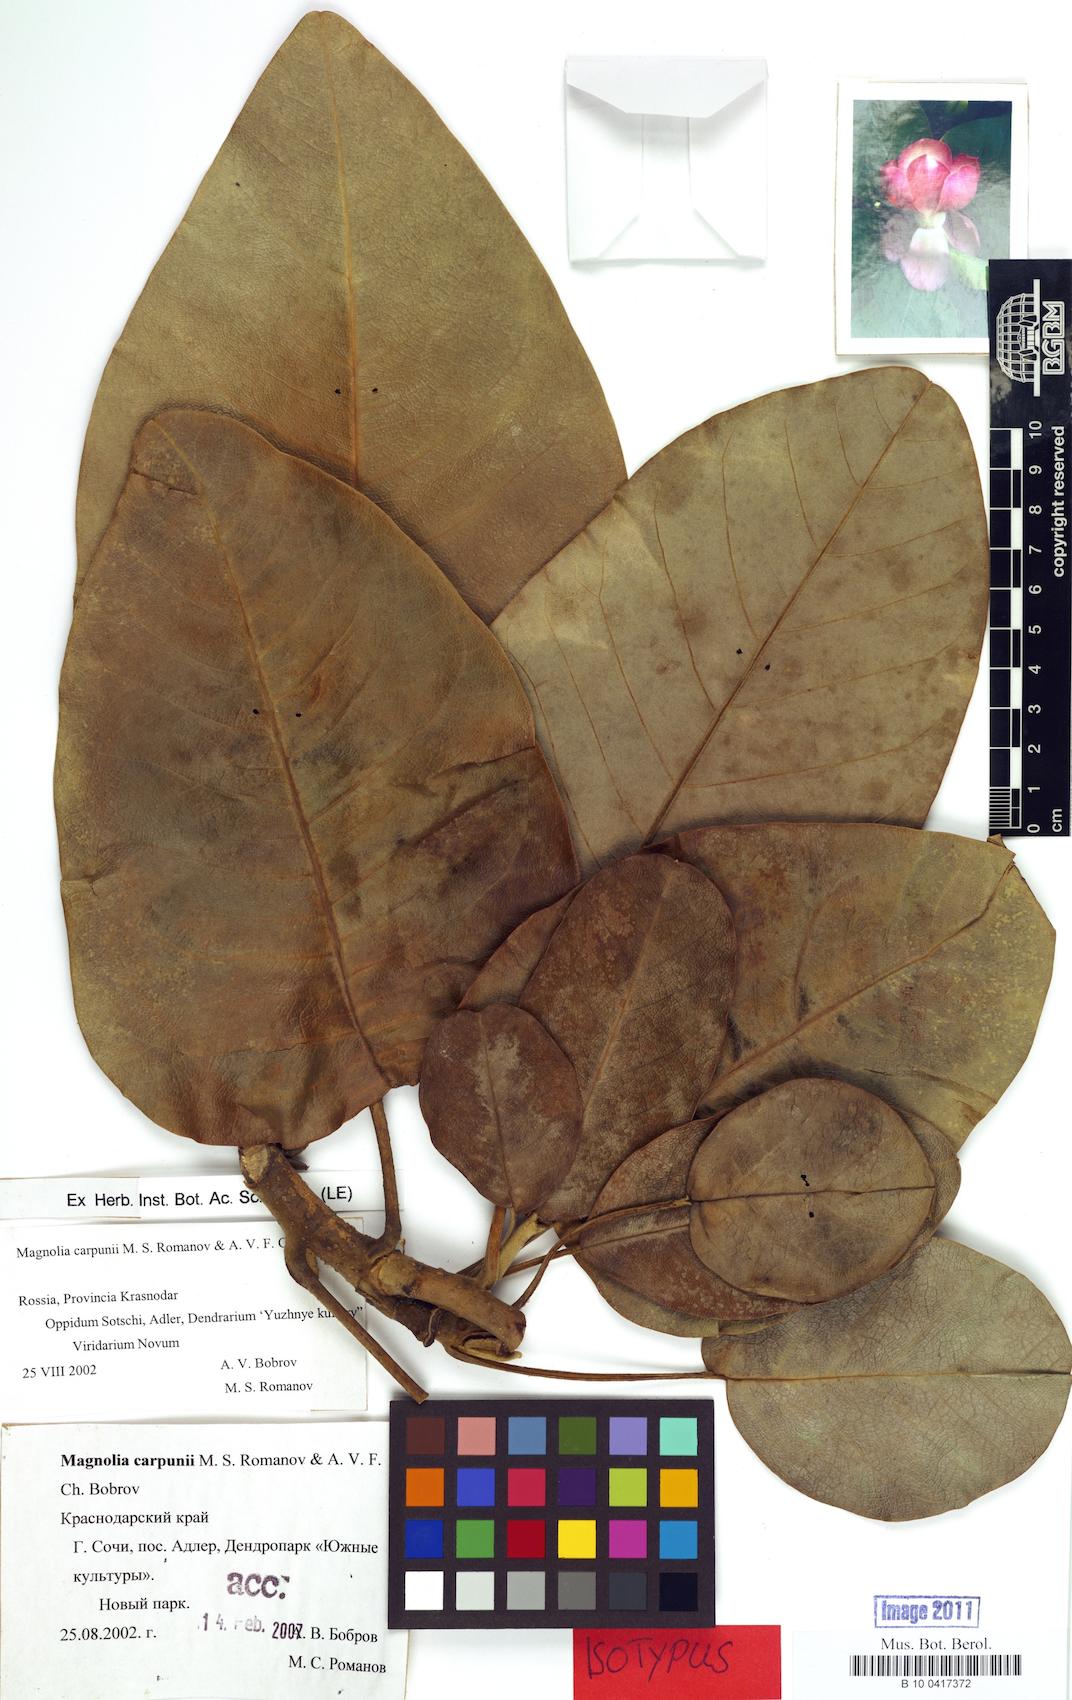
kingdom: Plantae
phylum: Tracheophyta
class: Magnoliopsida
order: Magnoliales
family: Magnoliaceae
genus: Magnolia
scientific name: Magnolia delavayi
